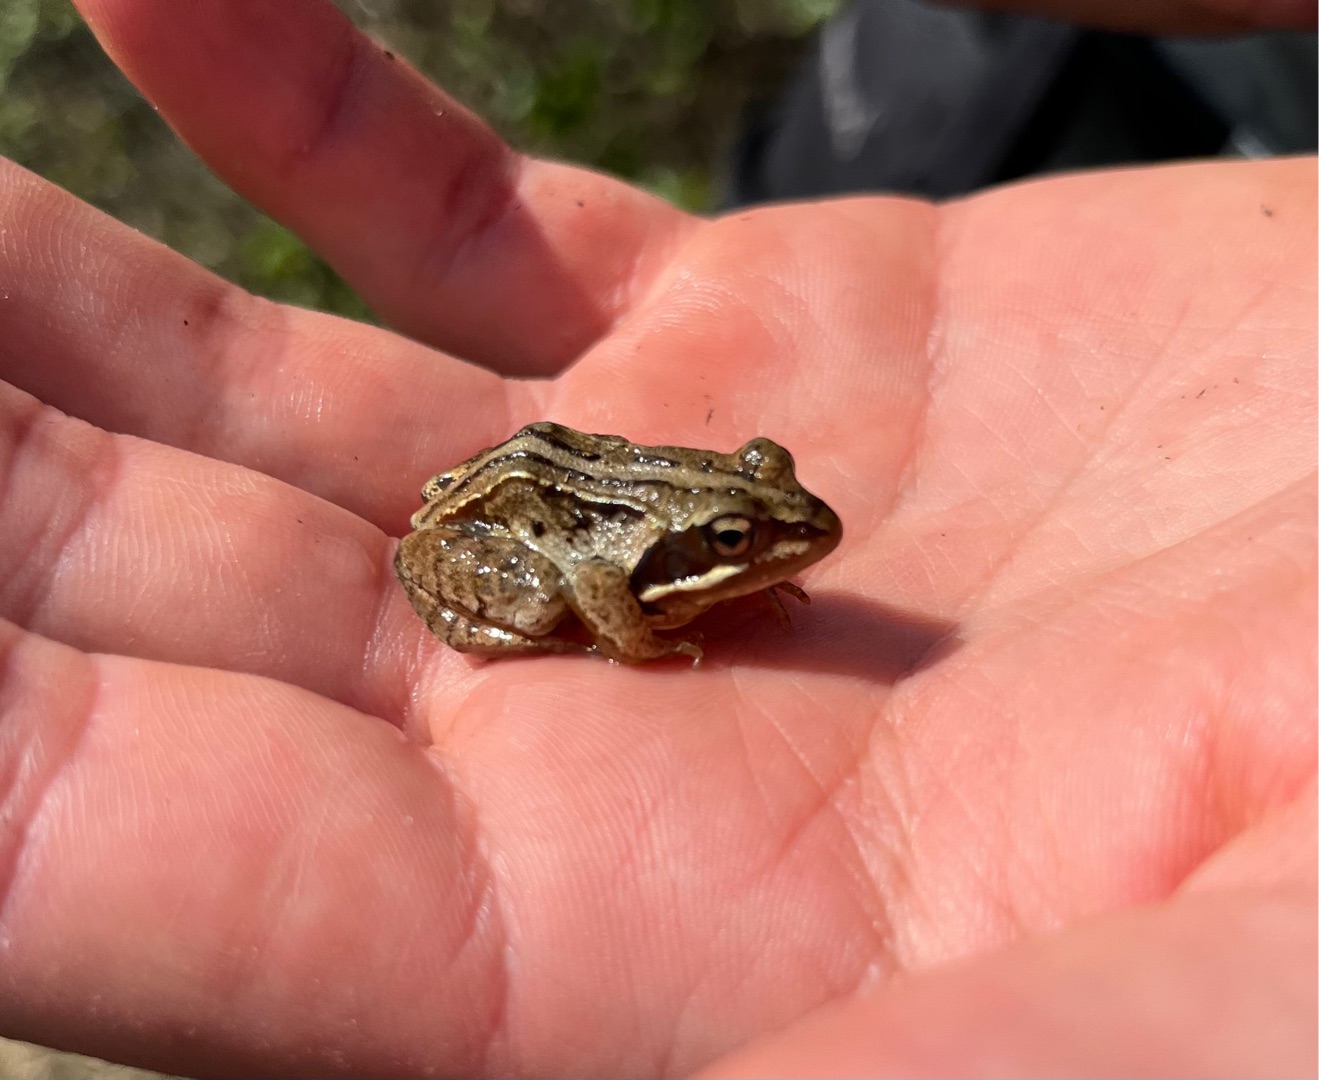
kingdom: Animalia
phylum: Chordata
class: Amphibia
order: Anura
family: Ranidae
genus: Rana
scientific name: Rana arvalis
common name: Spidssnudet frø
